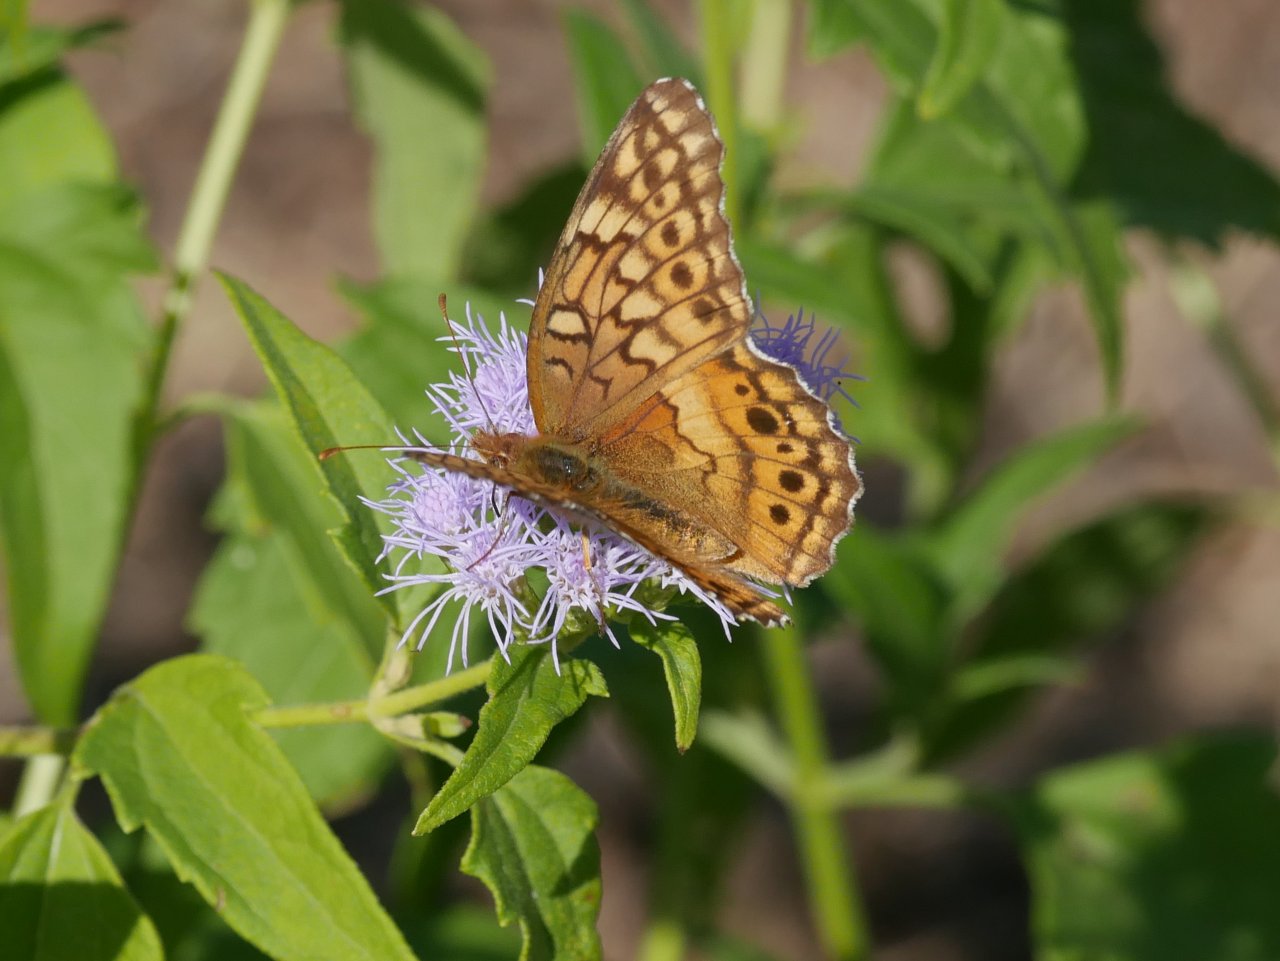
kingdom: Animalia
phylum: Arthropoda
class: Insecta
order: Lepidoptera
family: Nymphalidae
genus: Euptoieta
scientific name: Euptoieta claudia
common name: Variegated Fritillary
